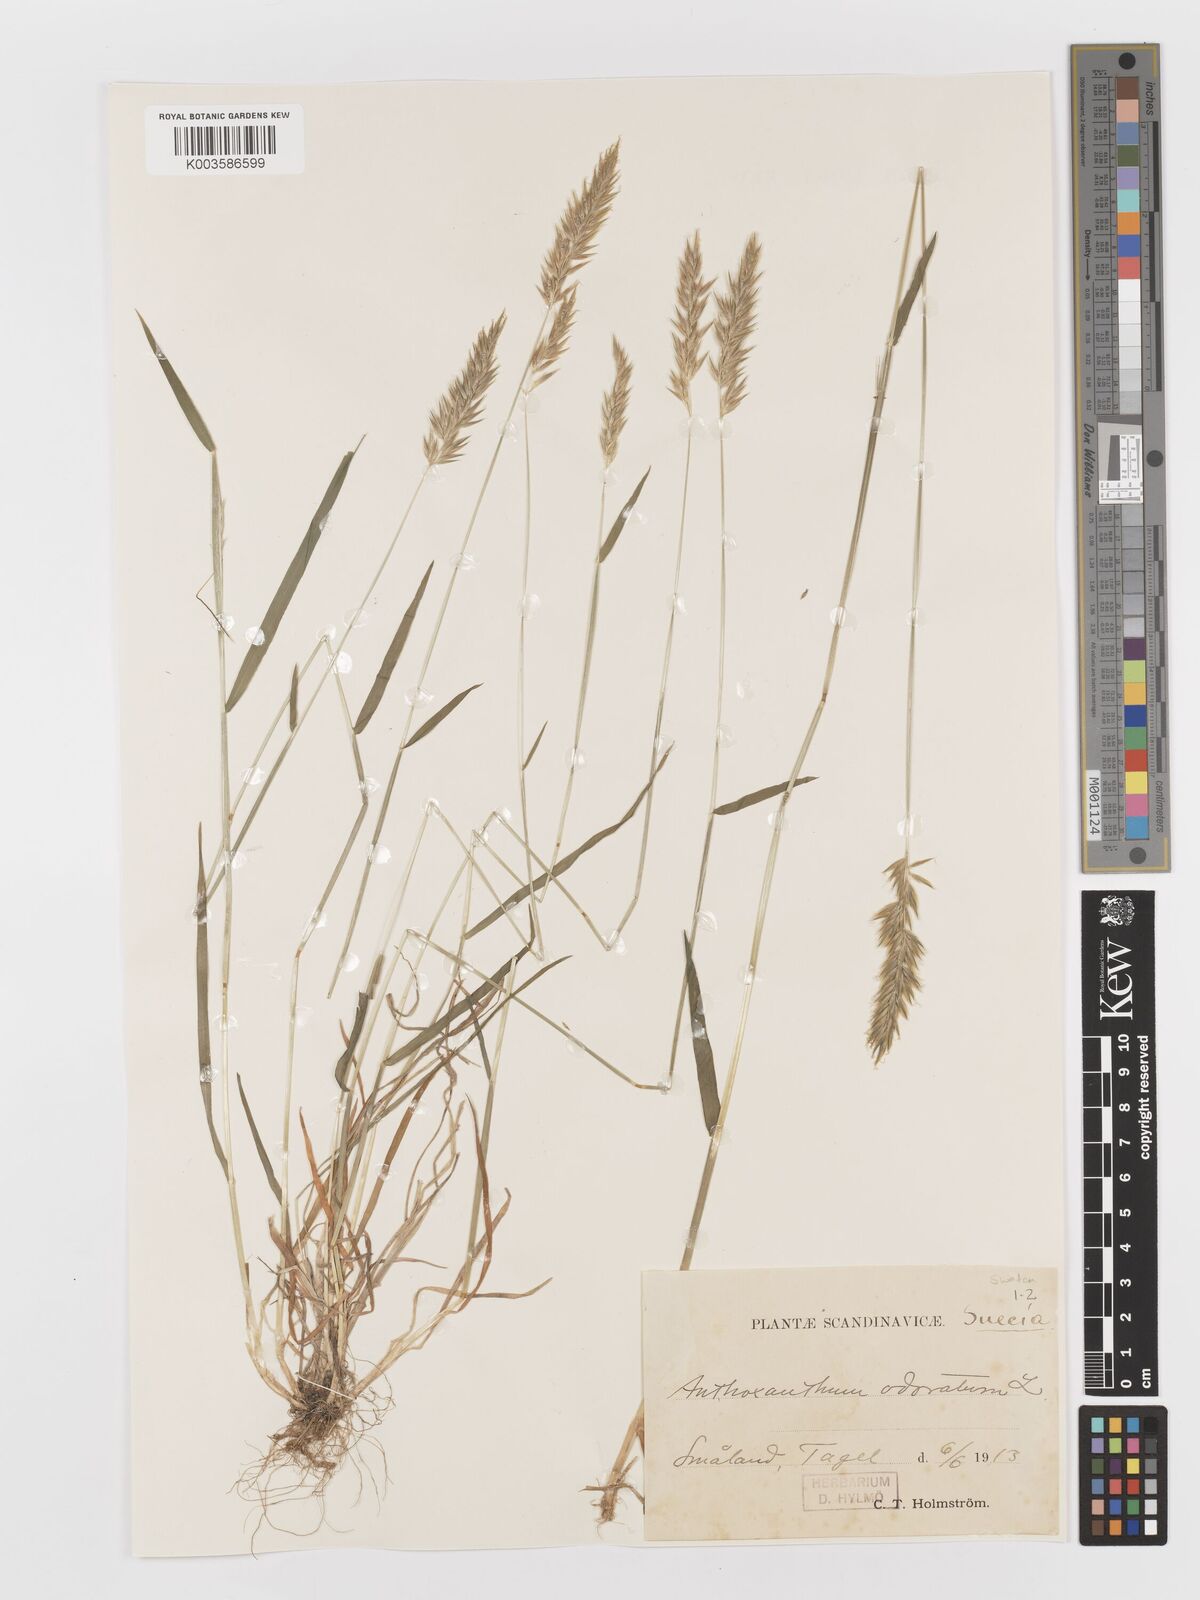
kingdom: Plantae
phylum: Tracheophyta
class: Liliopsida
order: Poales
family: Poaceae
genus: Anthoxanthum
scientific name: Anthoxanthum odoratum
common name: Sweet vernalgrass
